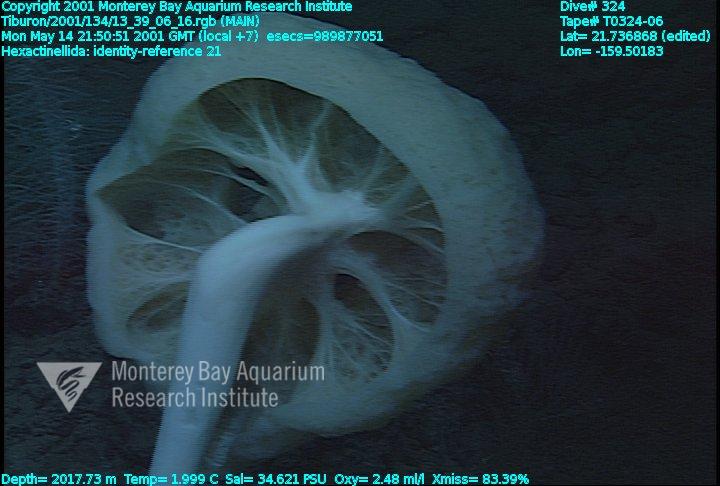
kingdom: Animalia
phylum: Porifera
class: Hexactinellida
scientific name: Hexactinellida
